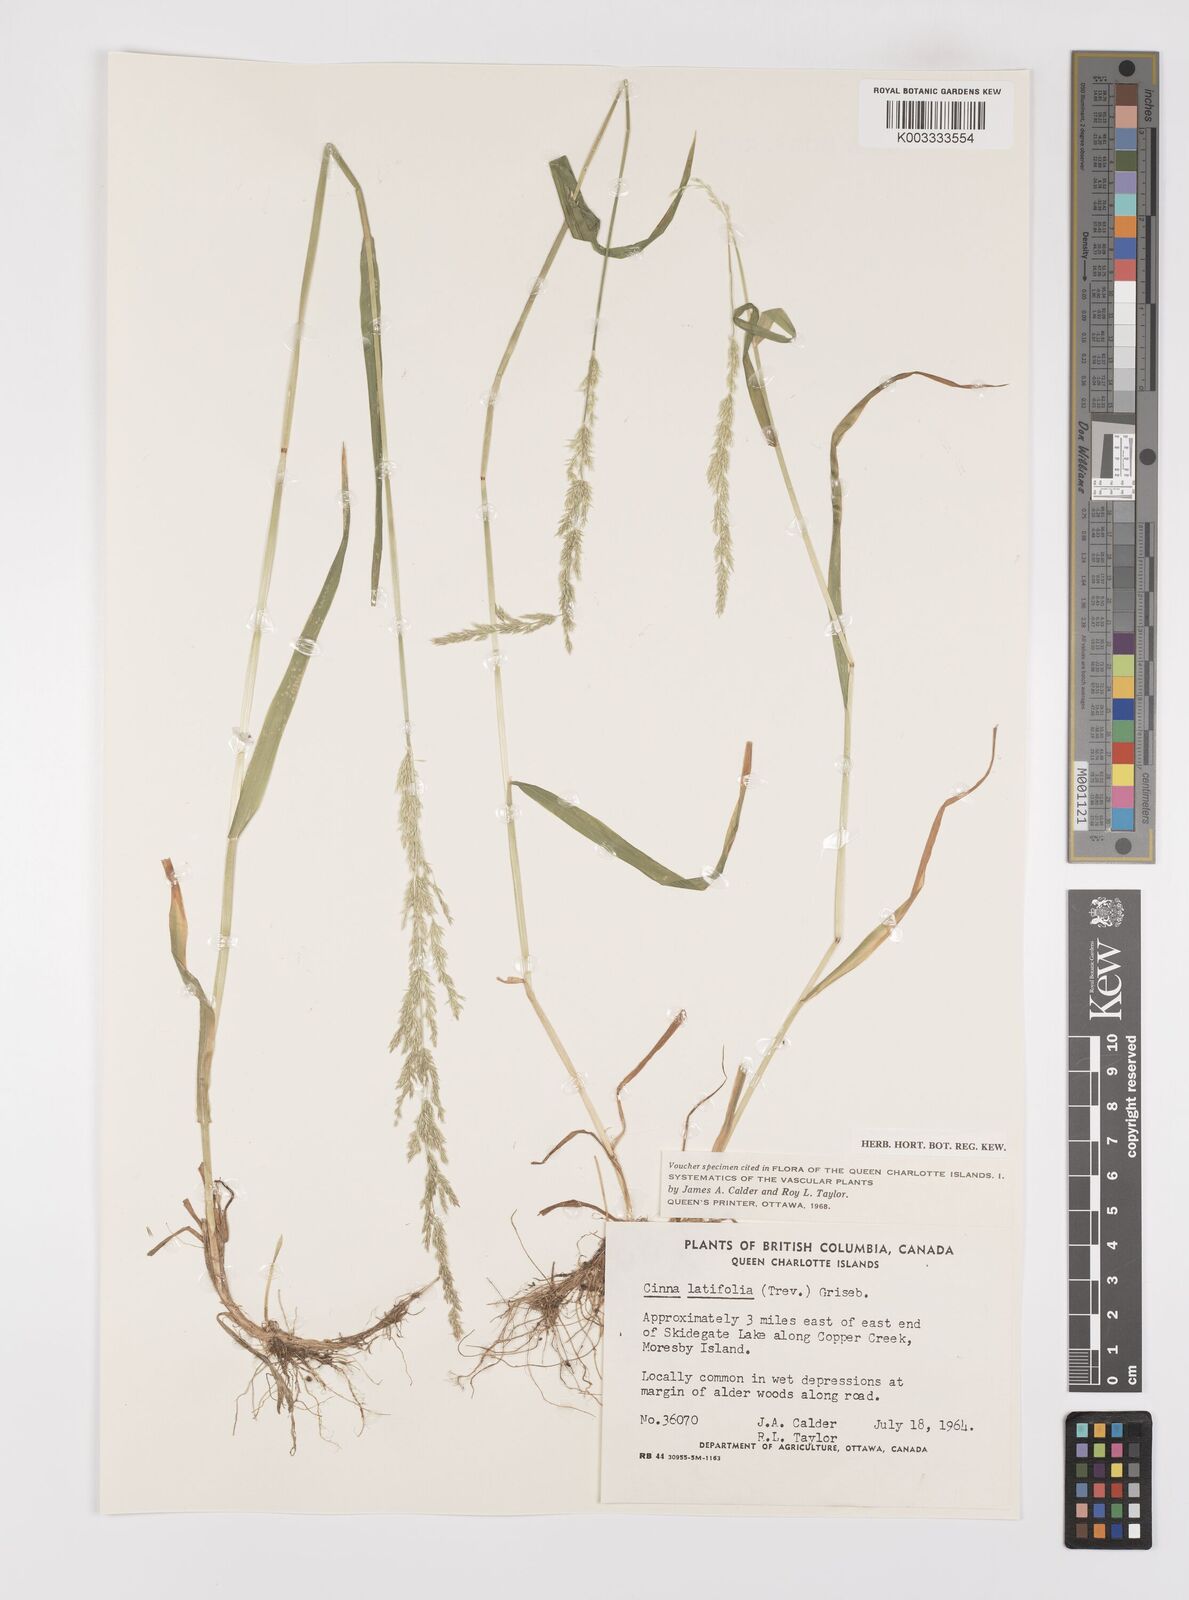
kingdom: Plantae
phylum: Tracheophyta
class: Liliopsida
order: Poales
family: Poaceae
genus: Cinna
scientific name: Cinna latifolia
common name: Drooping woodreed
